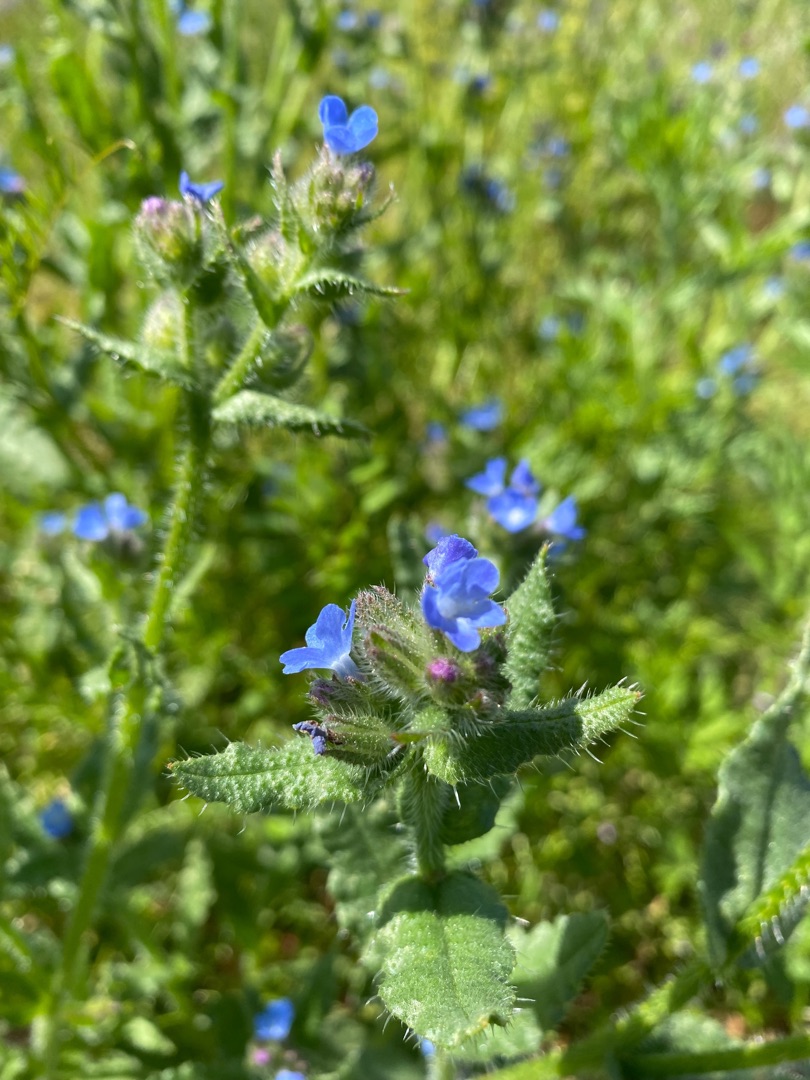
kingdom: Plantae
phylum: Tracheophyta
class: Magnoliopsida
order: Boraginales
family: Boraginaceae
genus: Lycopsis
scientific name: Lycopsis arvensis
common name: Krumhals
